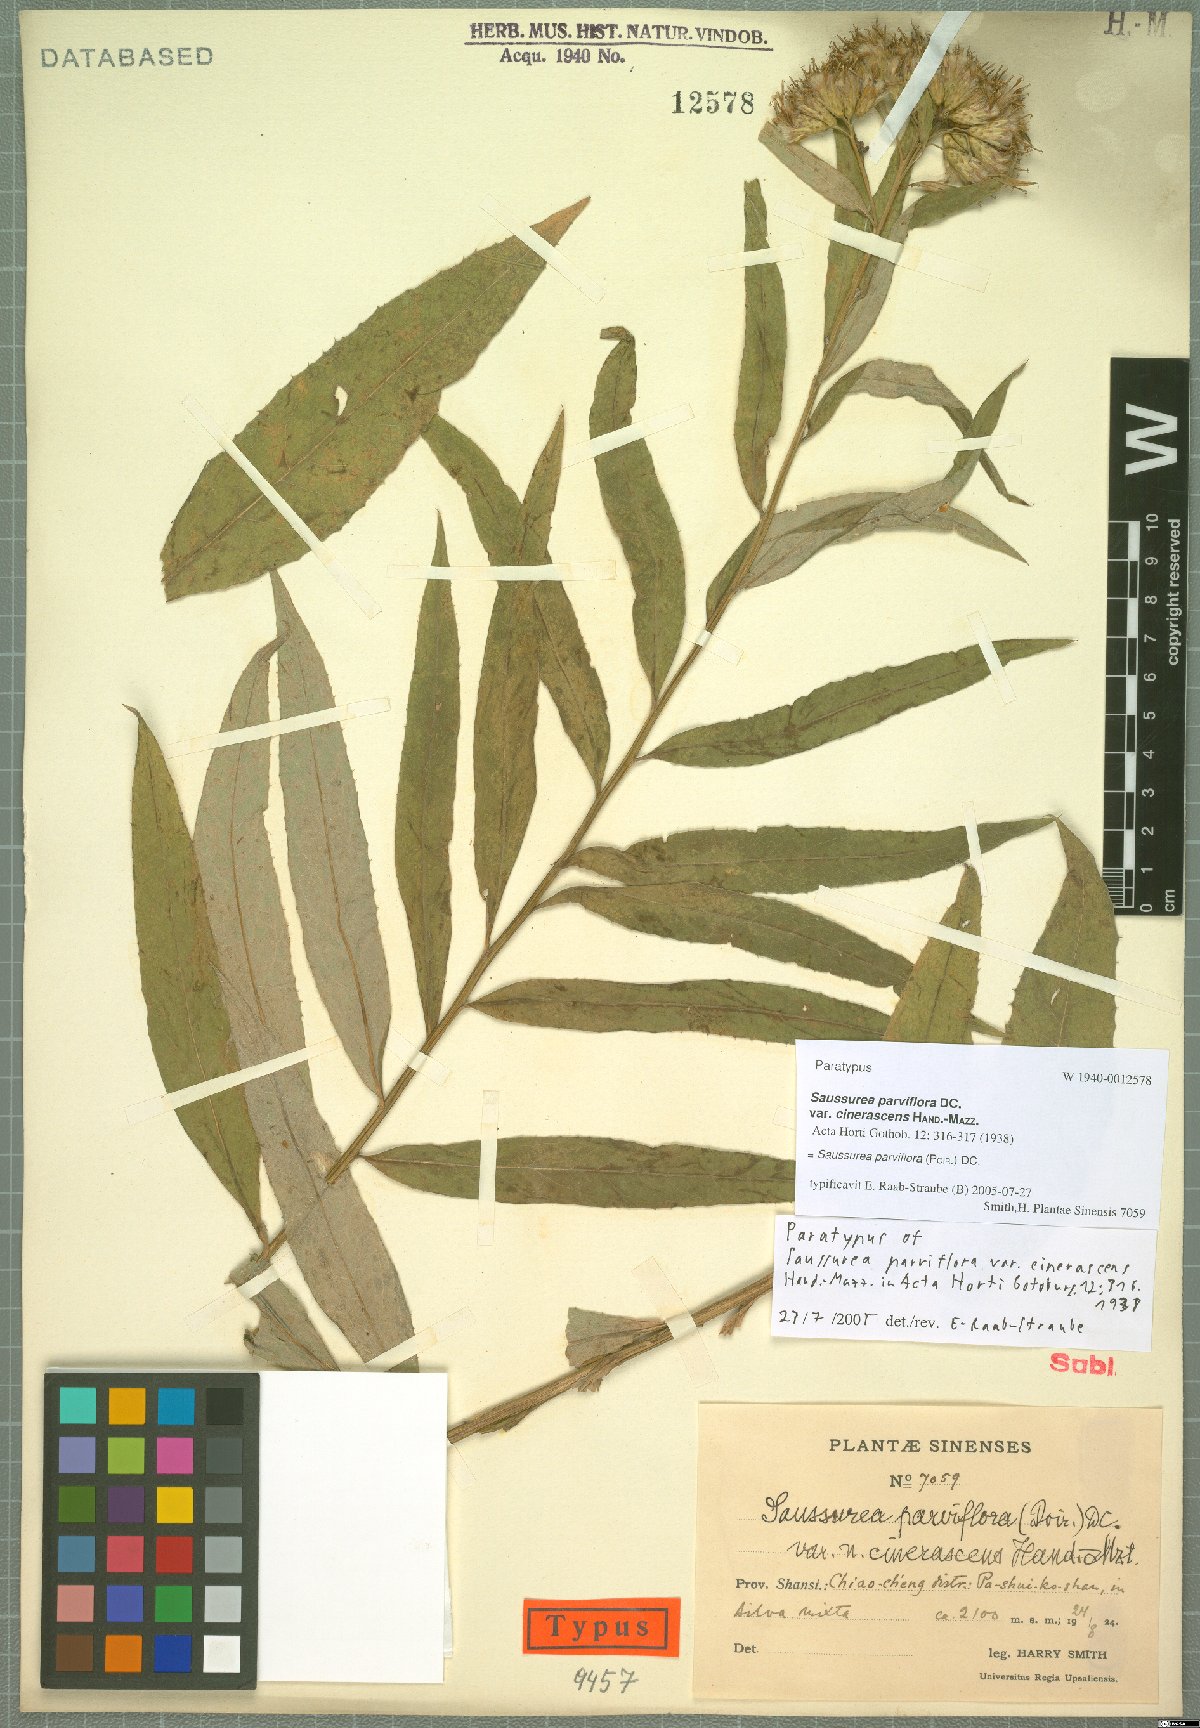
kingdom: Plantae
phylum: Tracheophyta
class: Magnoliopsida
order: Asterales
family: Asteraceae
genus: Saussurea
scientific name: Saussurea parviflora
